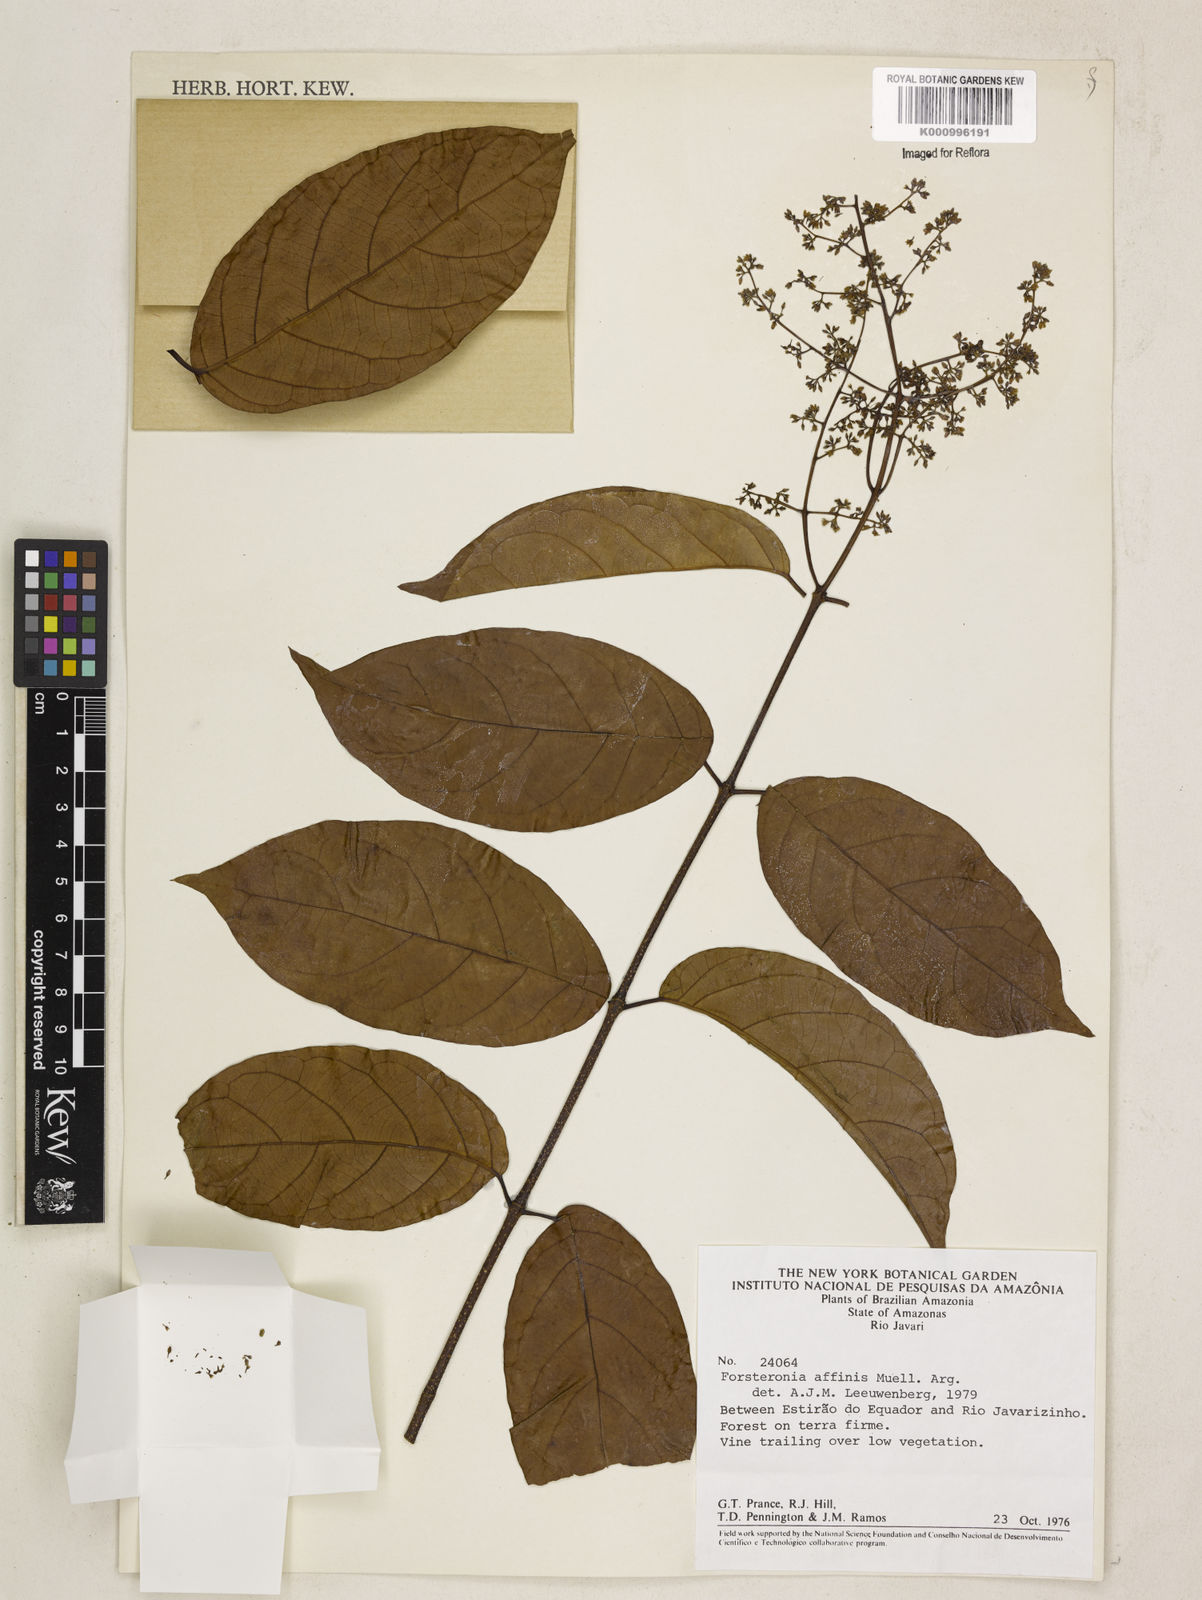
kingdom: Plantae
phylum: Tracheophyta
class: Magnoliopsida
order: Gentianales
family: Apocynaceae
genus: Forsteronia
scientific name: Forsteronia
